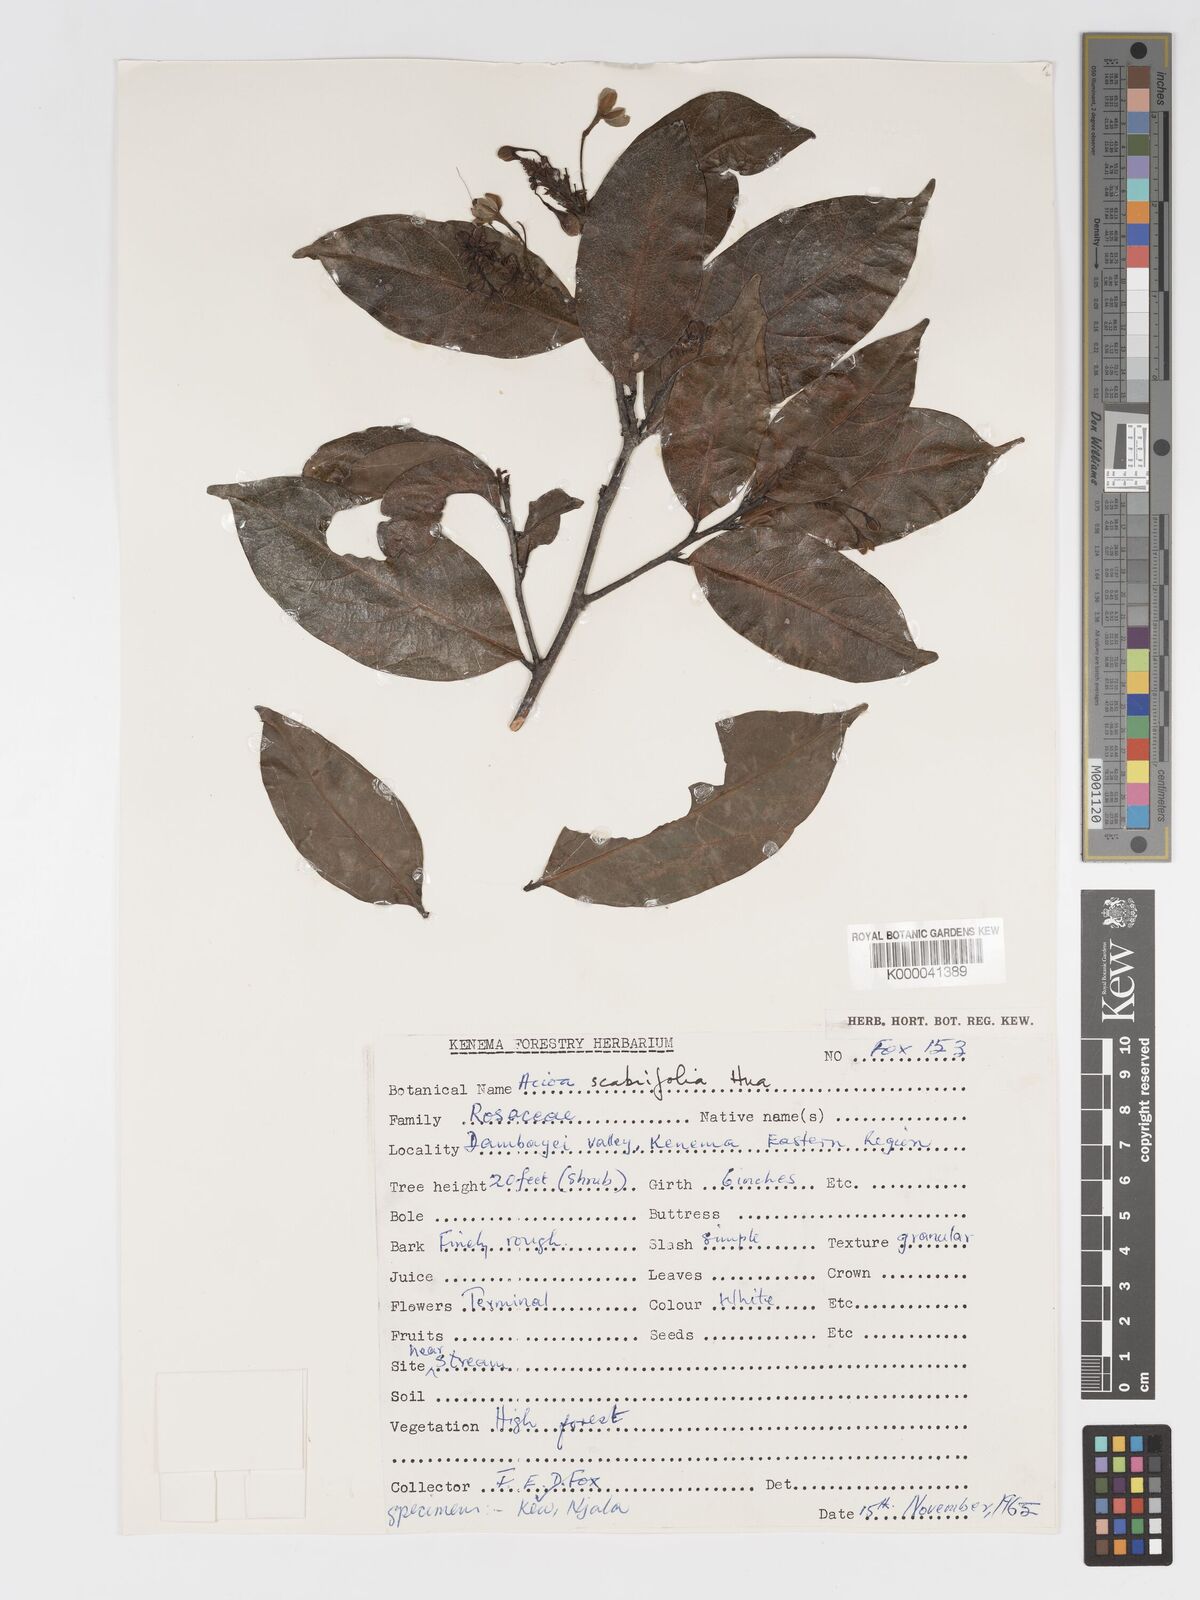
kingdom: Plantae
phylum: Tracheophyta
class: Magnoliopsida
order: Malpighiales
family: Chrysobalanaceae
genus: Dactyladenia
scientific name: Dactyladenia scabrifolia
